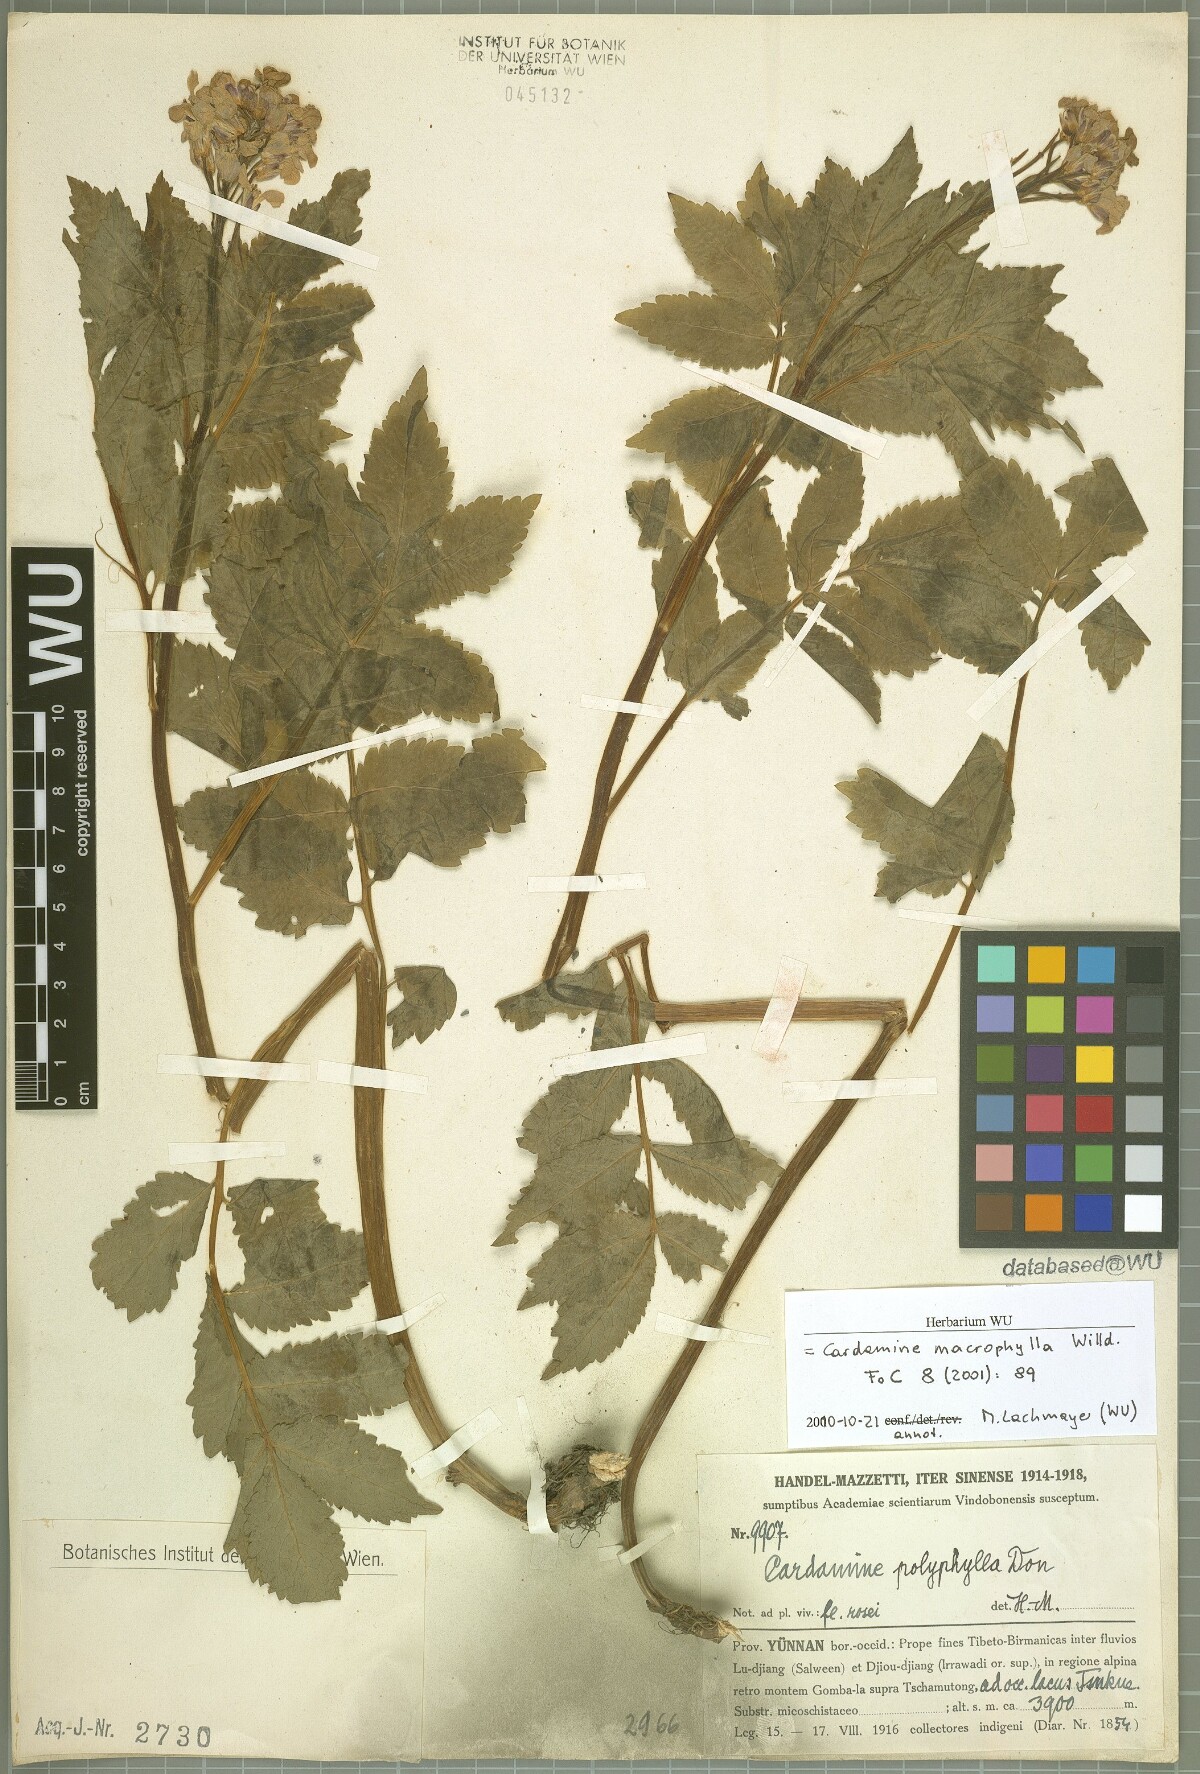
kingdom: Plantae
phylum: Tracheophyta
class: Magnoliopsida
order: Brassicales
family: Brassicaceae
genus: Cardamine
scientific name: Cardamine macrophylla
